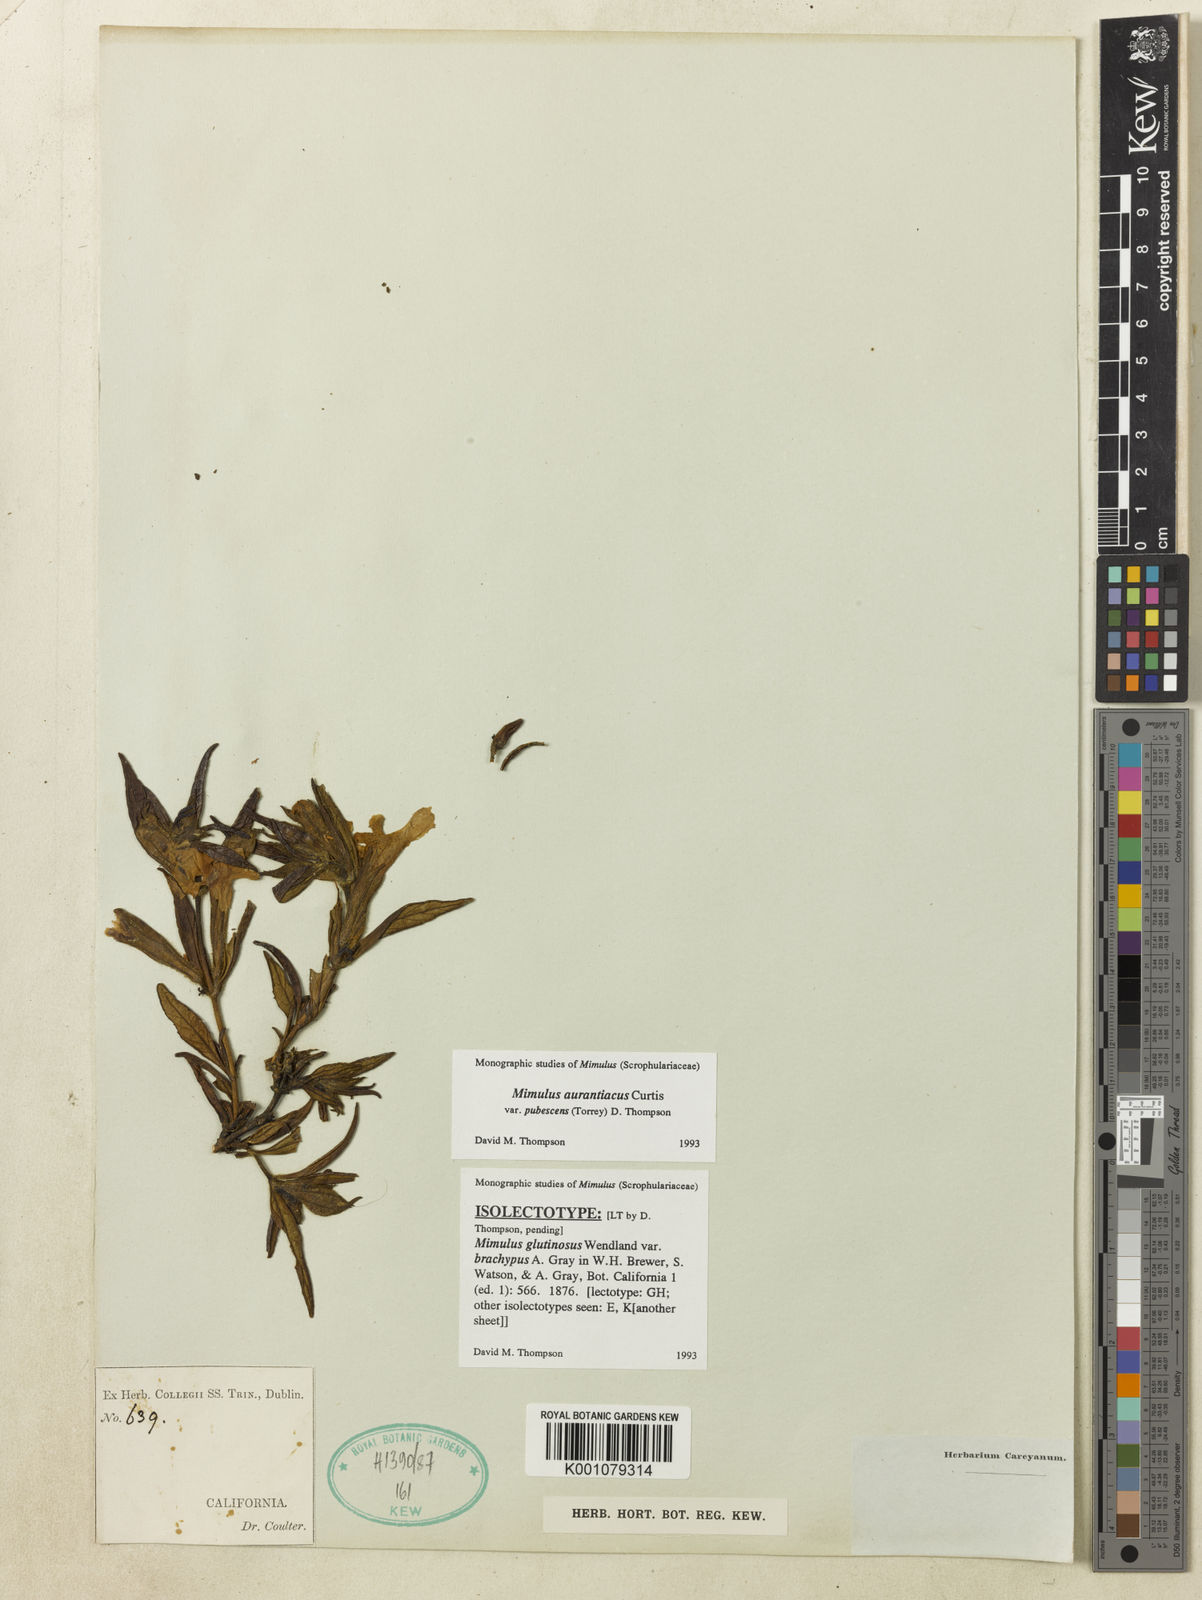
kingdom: Plantae
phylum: Tracheophyta
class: Magnoliopsida
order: Lamiales
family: Phrymaceae
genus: Diplacus
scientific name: Diplacus longiflorus
